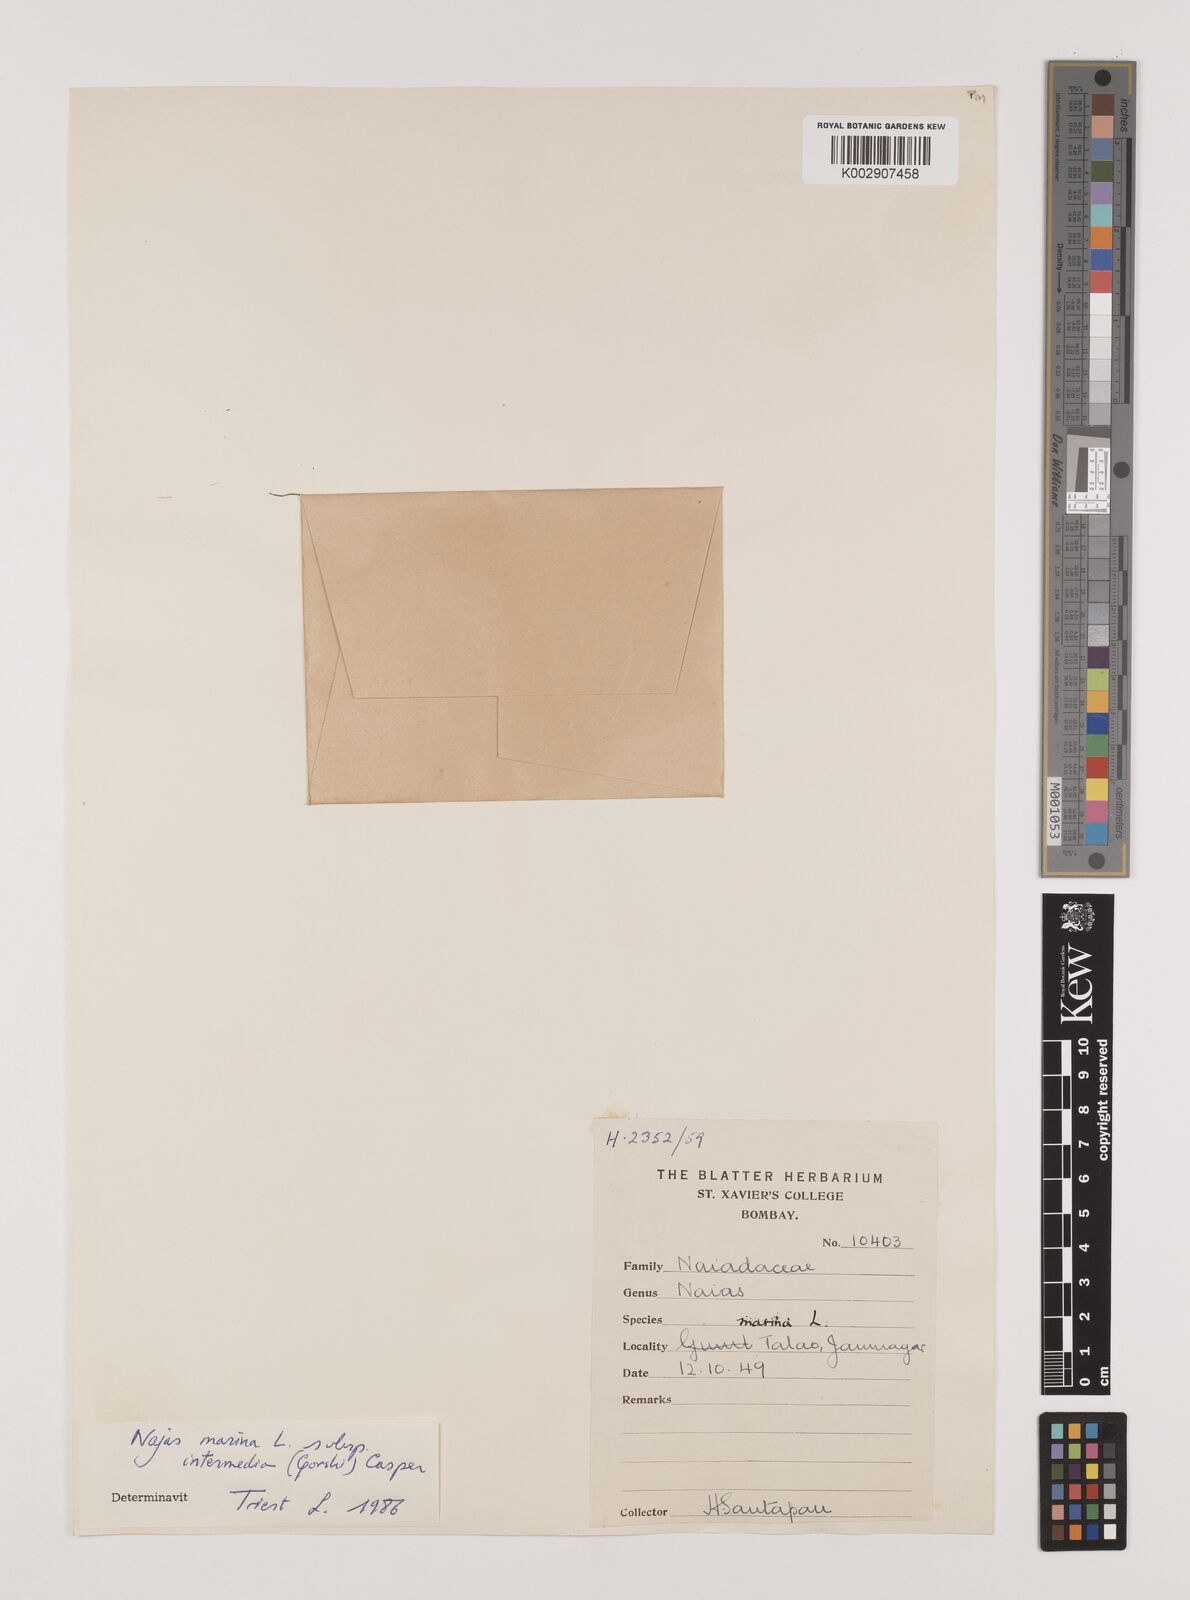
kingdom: Plantae
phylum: Tracheophyta
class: Liliopsida
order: Alismatales
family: Hydrocharitaceae
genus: Najas
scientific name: Najas marina
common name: Holly-leaved naiad
